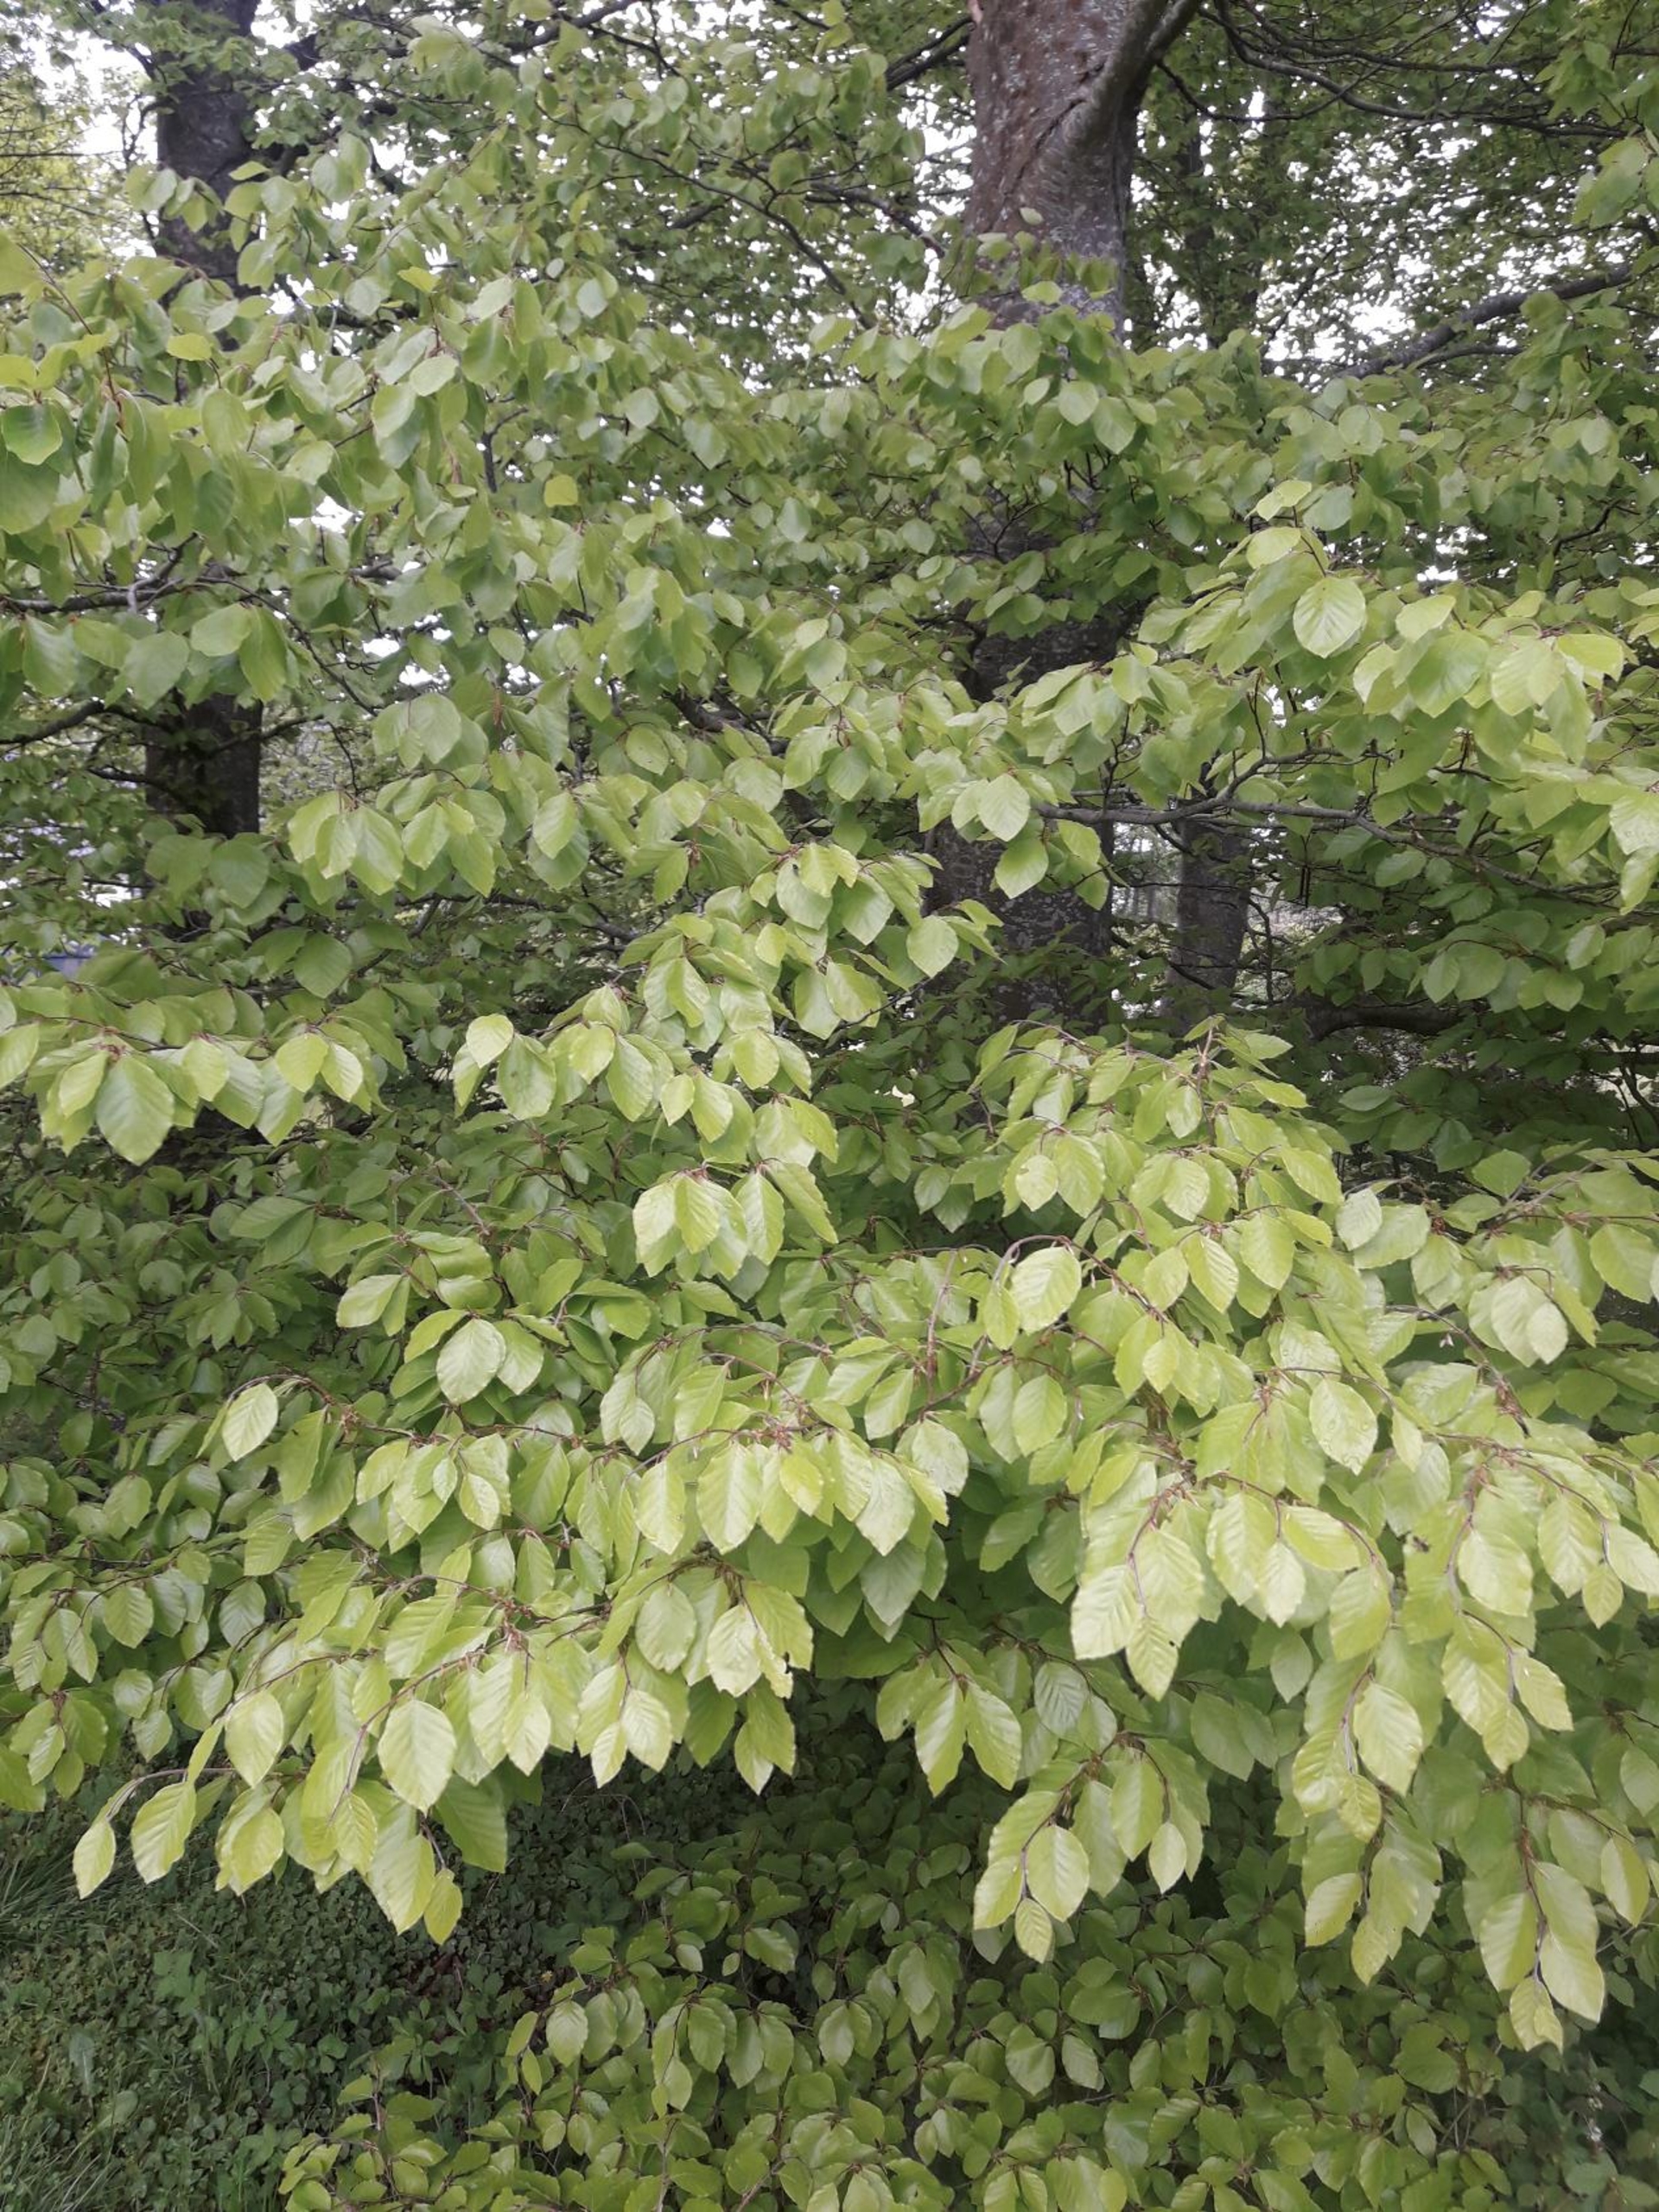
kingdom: Plantae
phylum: Tracheophyta
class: Magnoliopsida
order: Fagales
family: Fagaceae
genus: Fagus
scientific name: Fagus sylvatica
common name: Bøg
